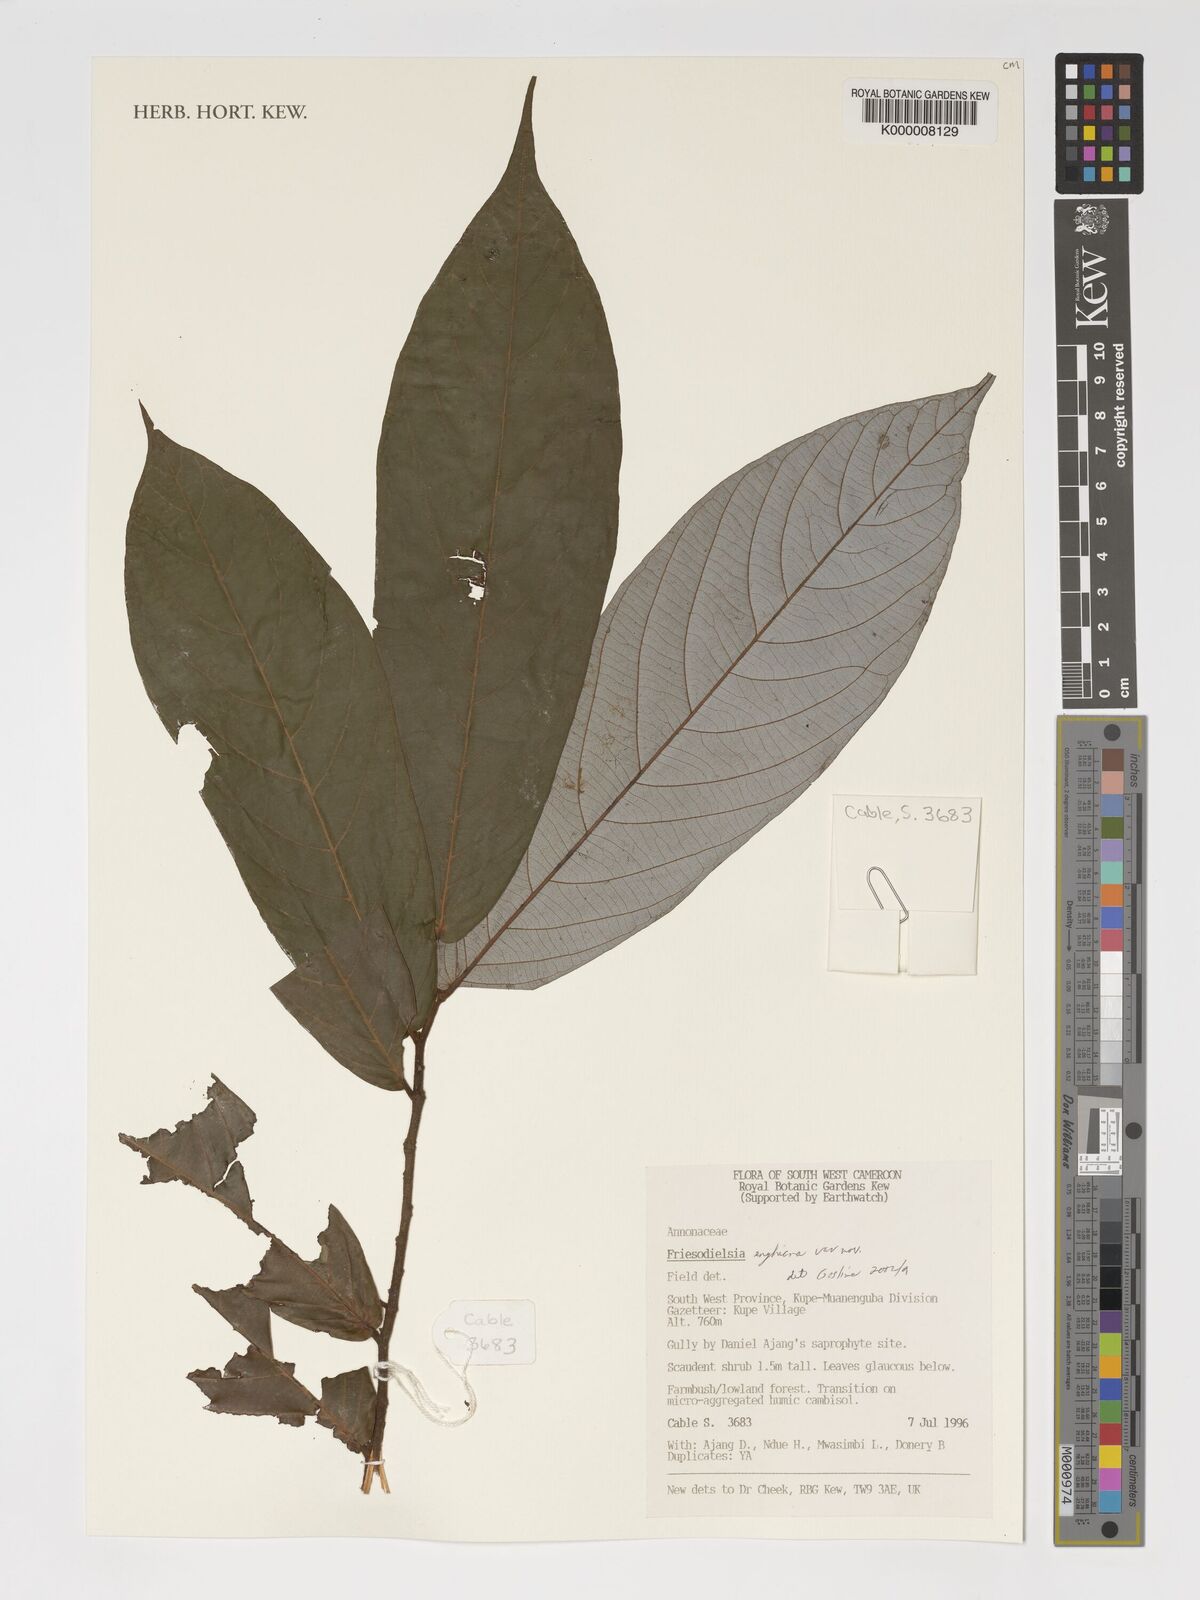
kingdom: Plantae
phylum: Tracheophyta
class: Magnoliopsida
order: Magnoliales
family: Annonaceae
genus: Friesodielsia
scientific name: Friesodielsia enghiana
